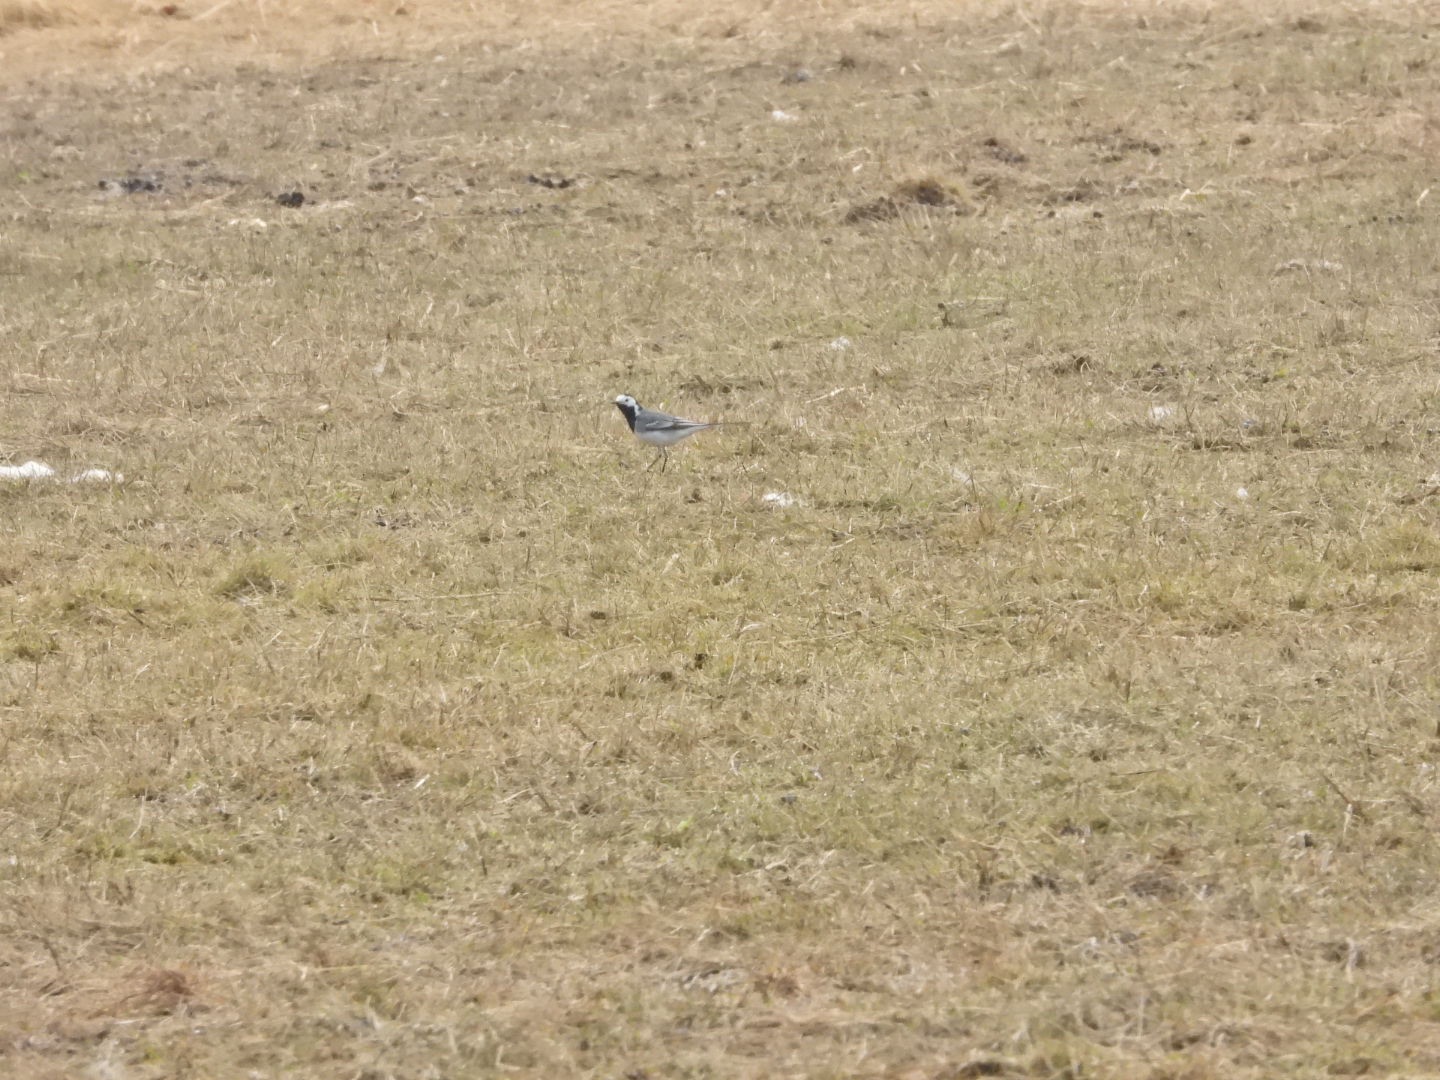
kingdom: Animalia
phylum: Chordata
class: Aves
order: Passeriformes
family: Motacillidae
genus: Motacilla
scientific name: Motacilla alba
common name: Hvid vipstjert
